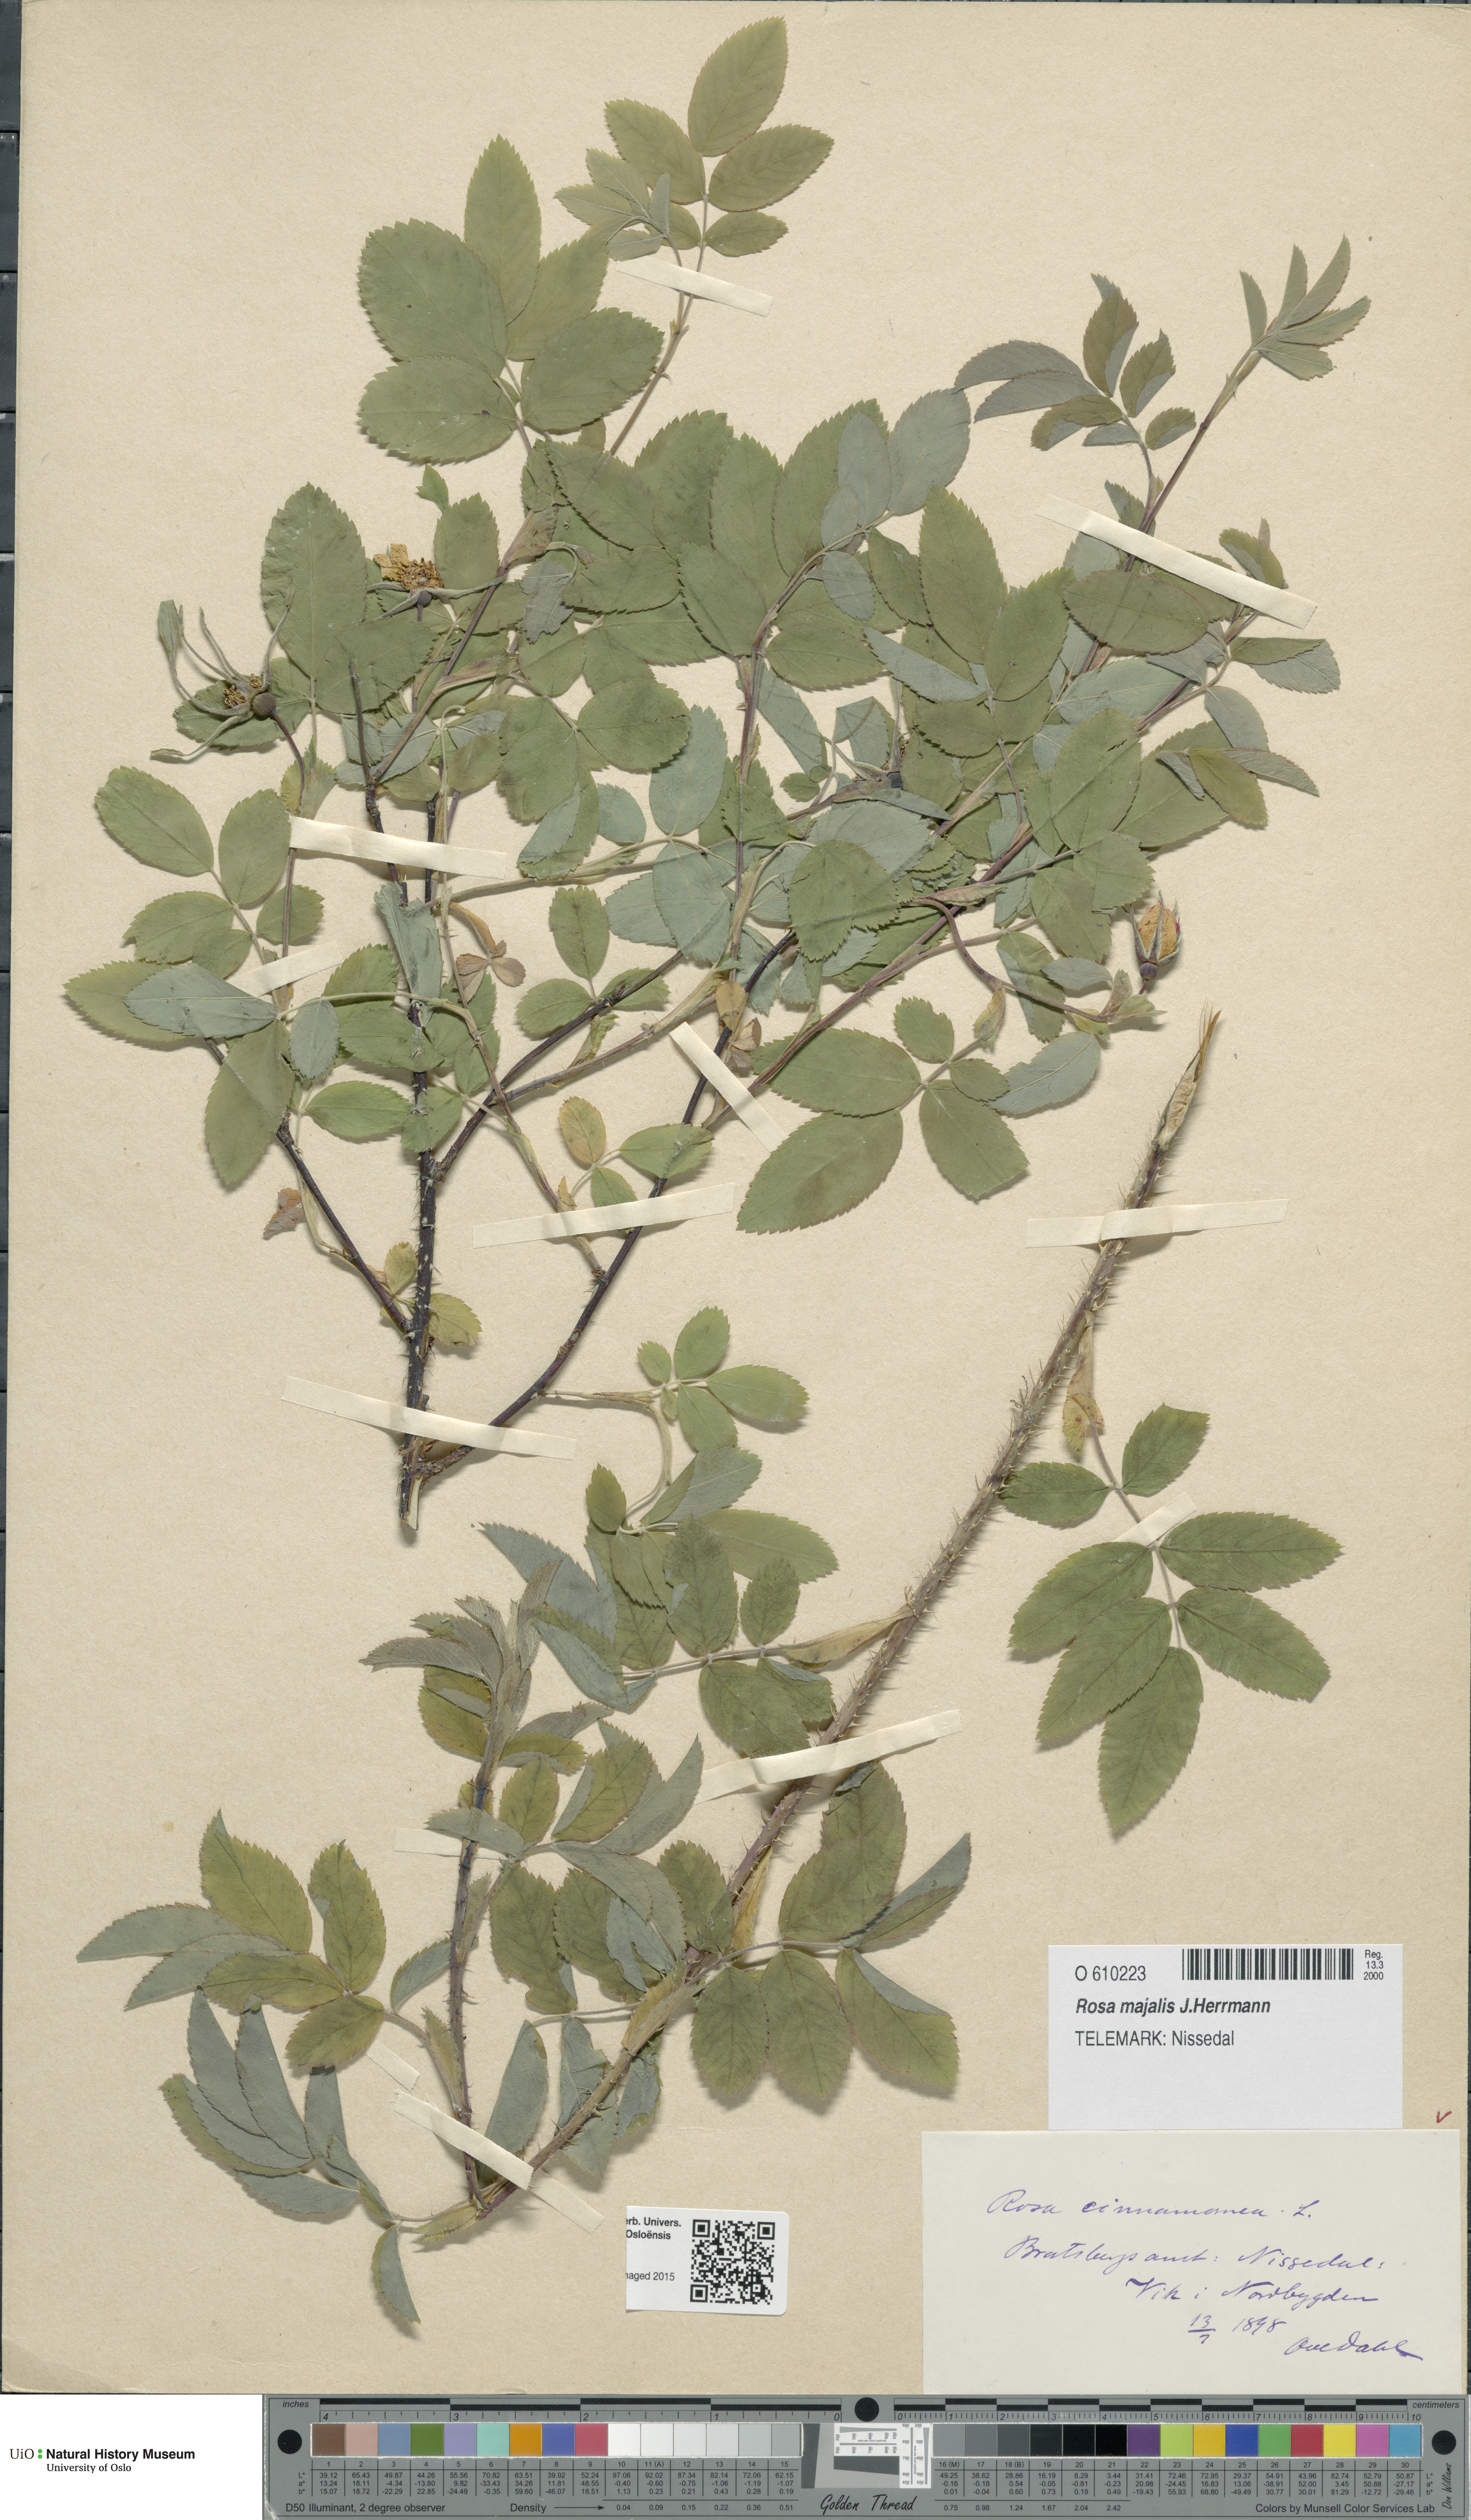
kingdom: Plantae
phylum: Tracheophyta
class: Magnoliopsida
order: Rosales
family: Rosaceae
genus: Rosa
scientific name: Rosa pendulina
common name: Alpine rose
